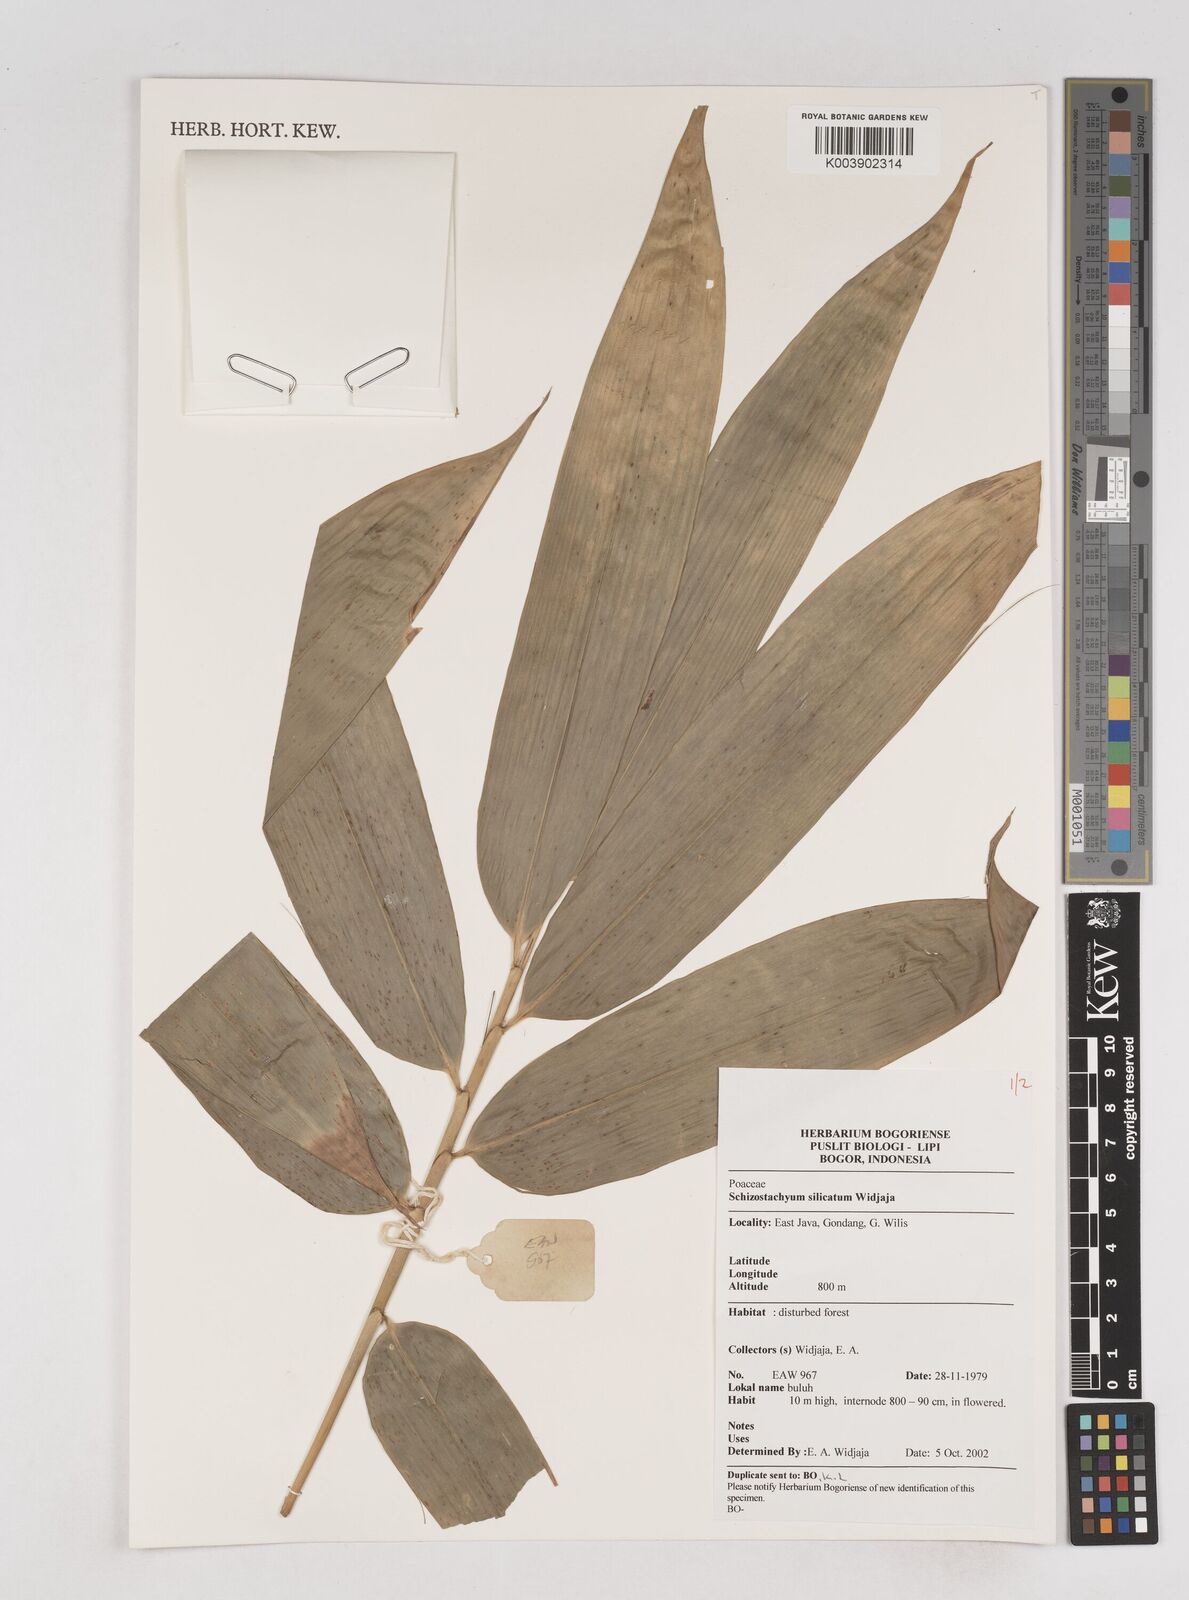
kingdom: Plantae
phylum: Tracheophyta
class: Liliopsida
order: Poales
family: Poaceae
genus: Schizostachyum
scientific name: Schizostachyum silicatum
